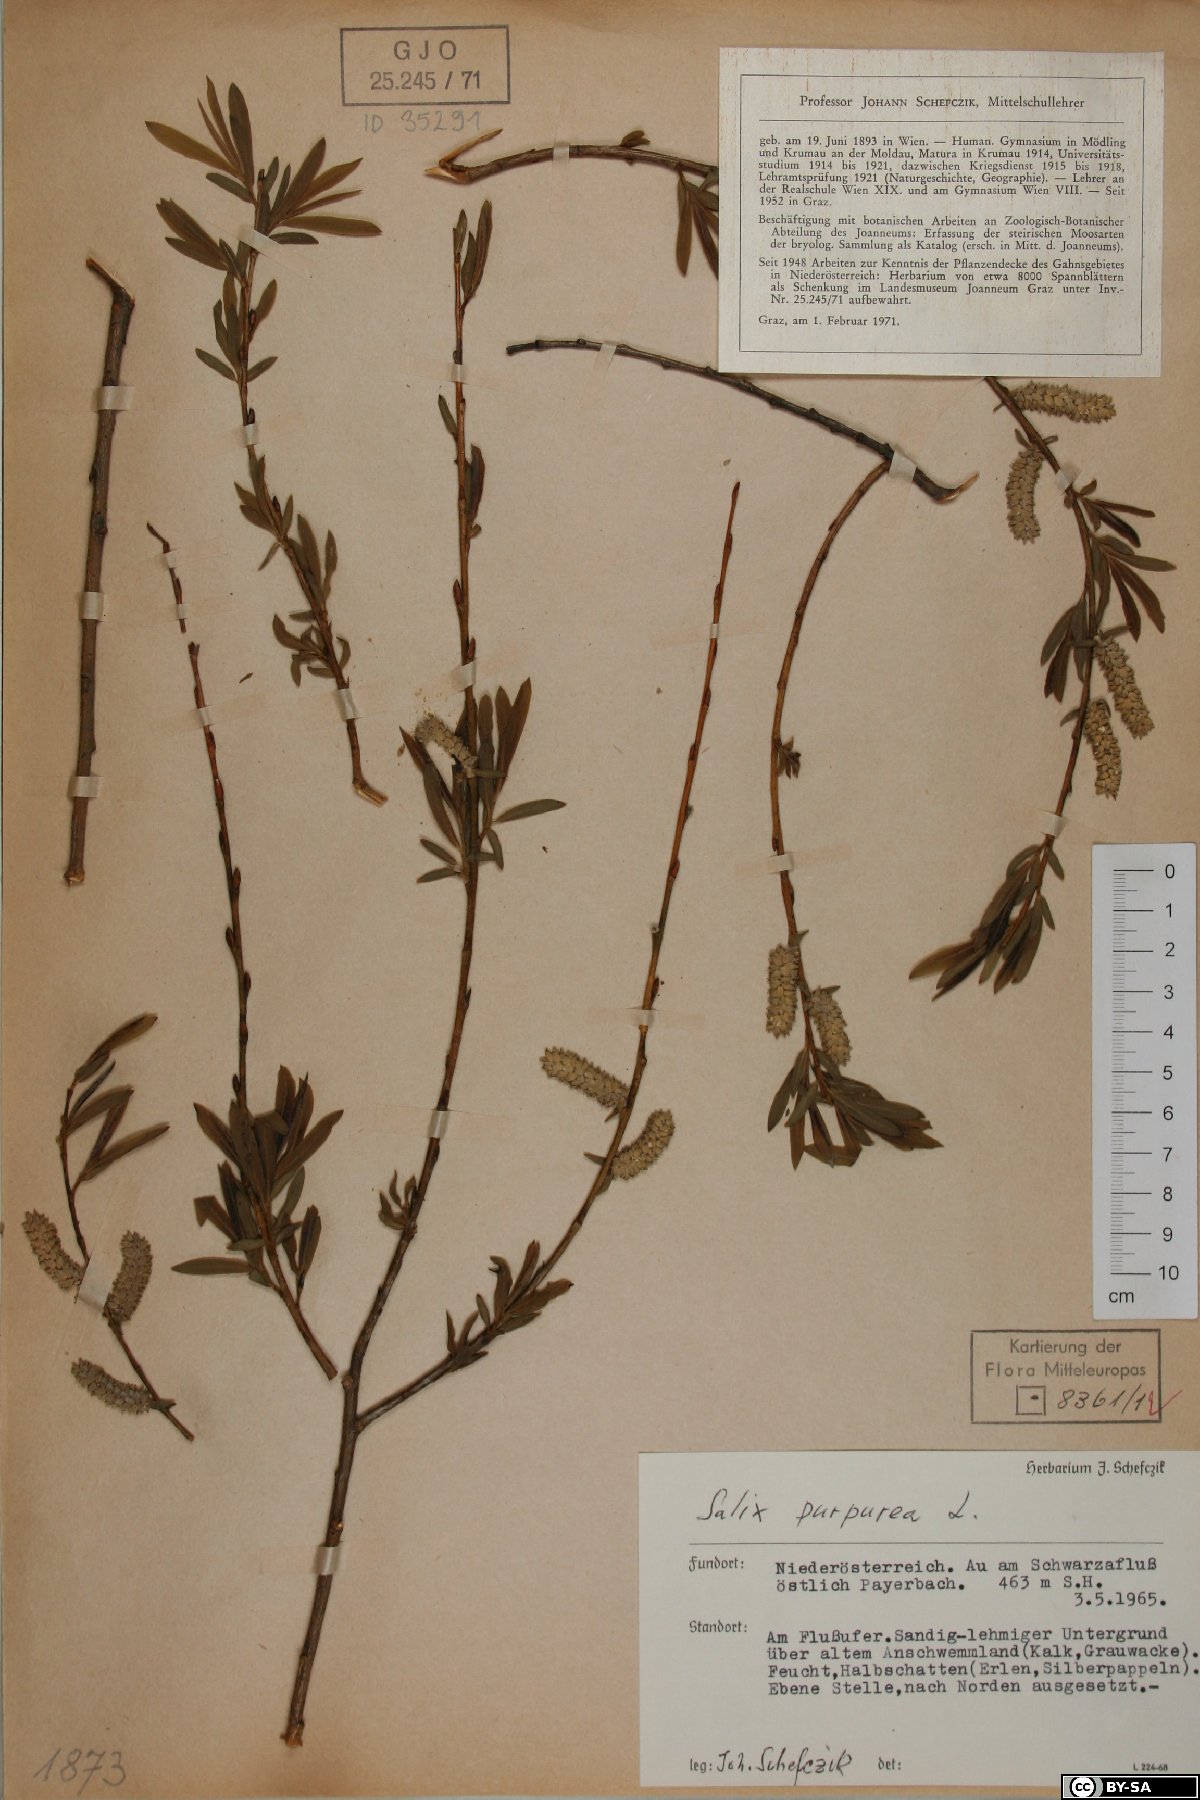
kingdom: Plantae
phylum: Tracheophyta
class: Magnoliopsida
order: Malpighiales
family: Salicaceae
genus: Salix
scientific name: Salix purpurea
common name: Purple willow
